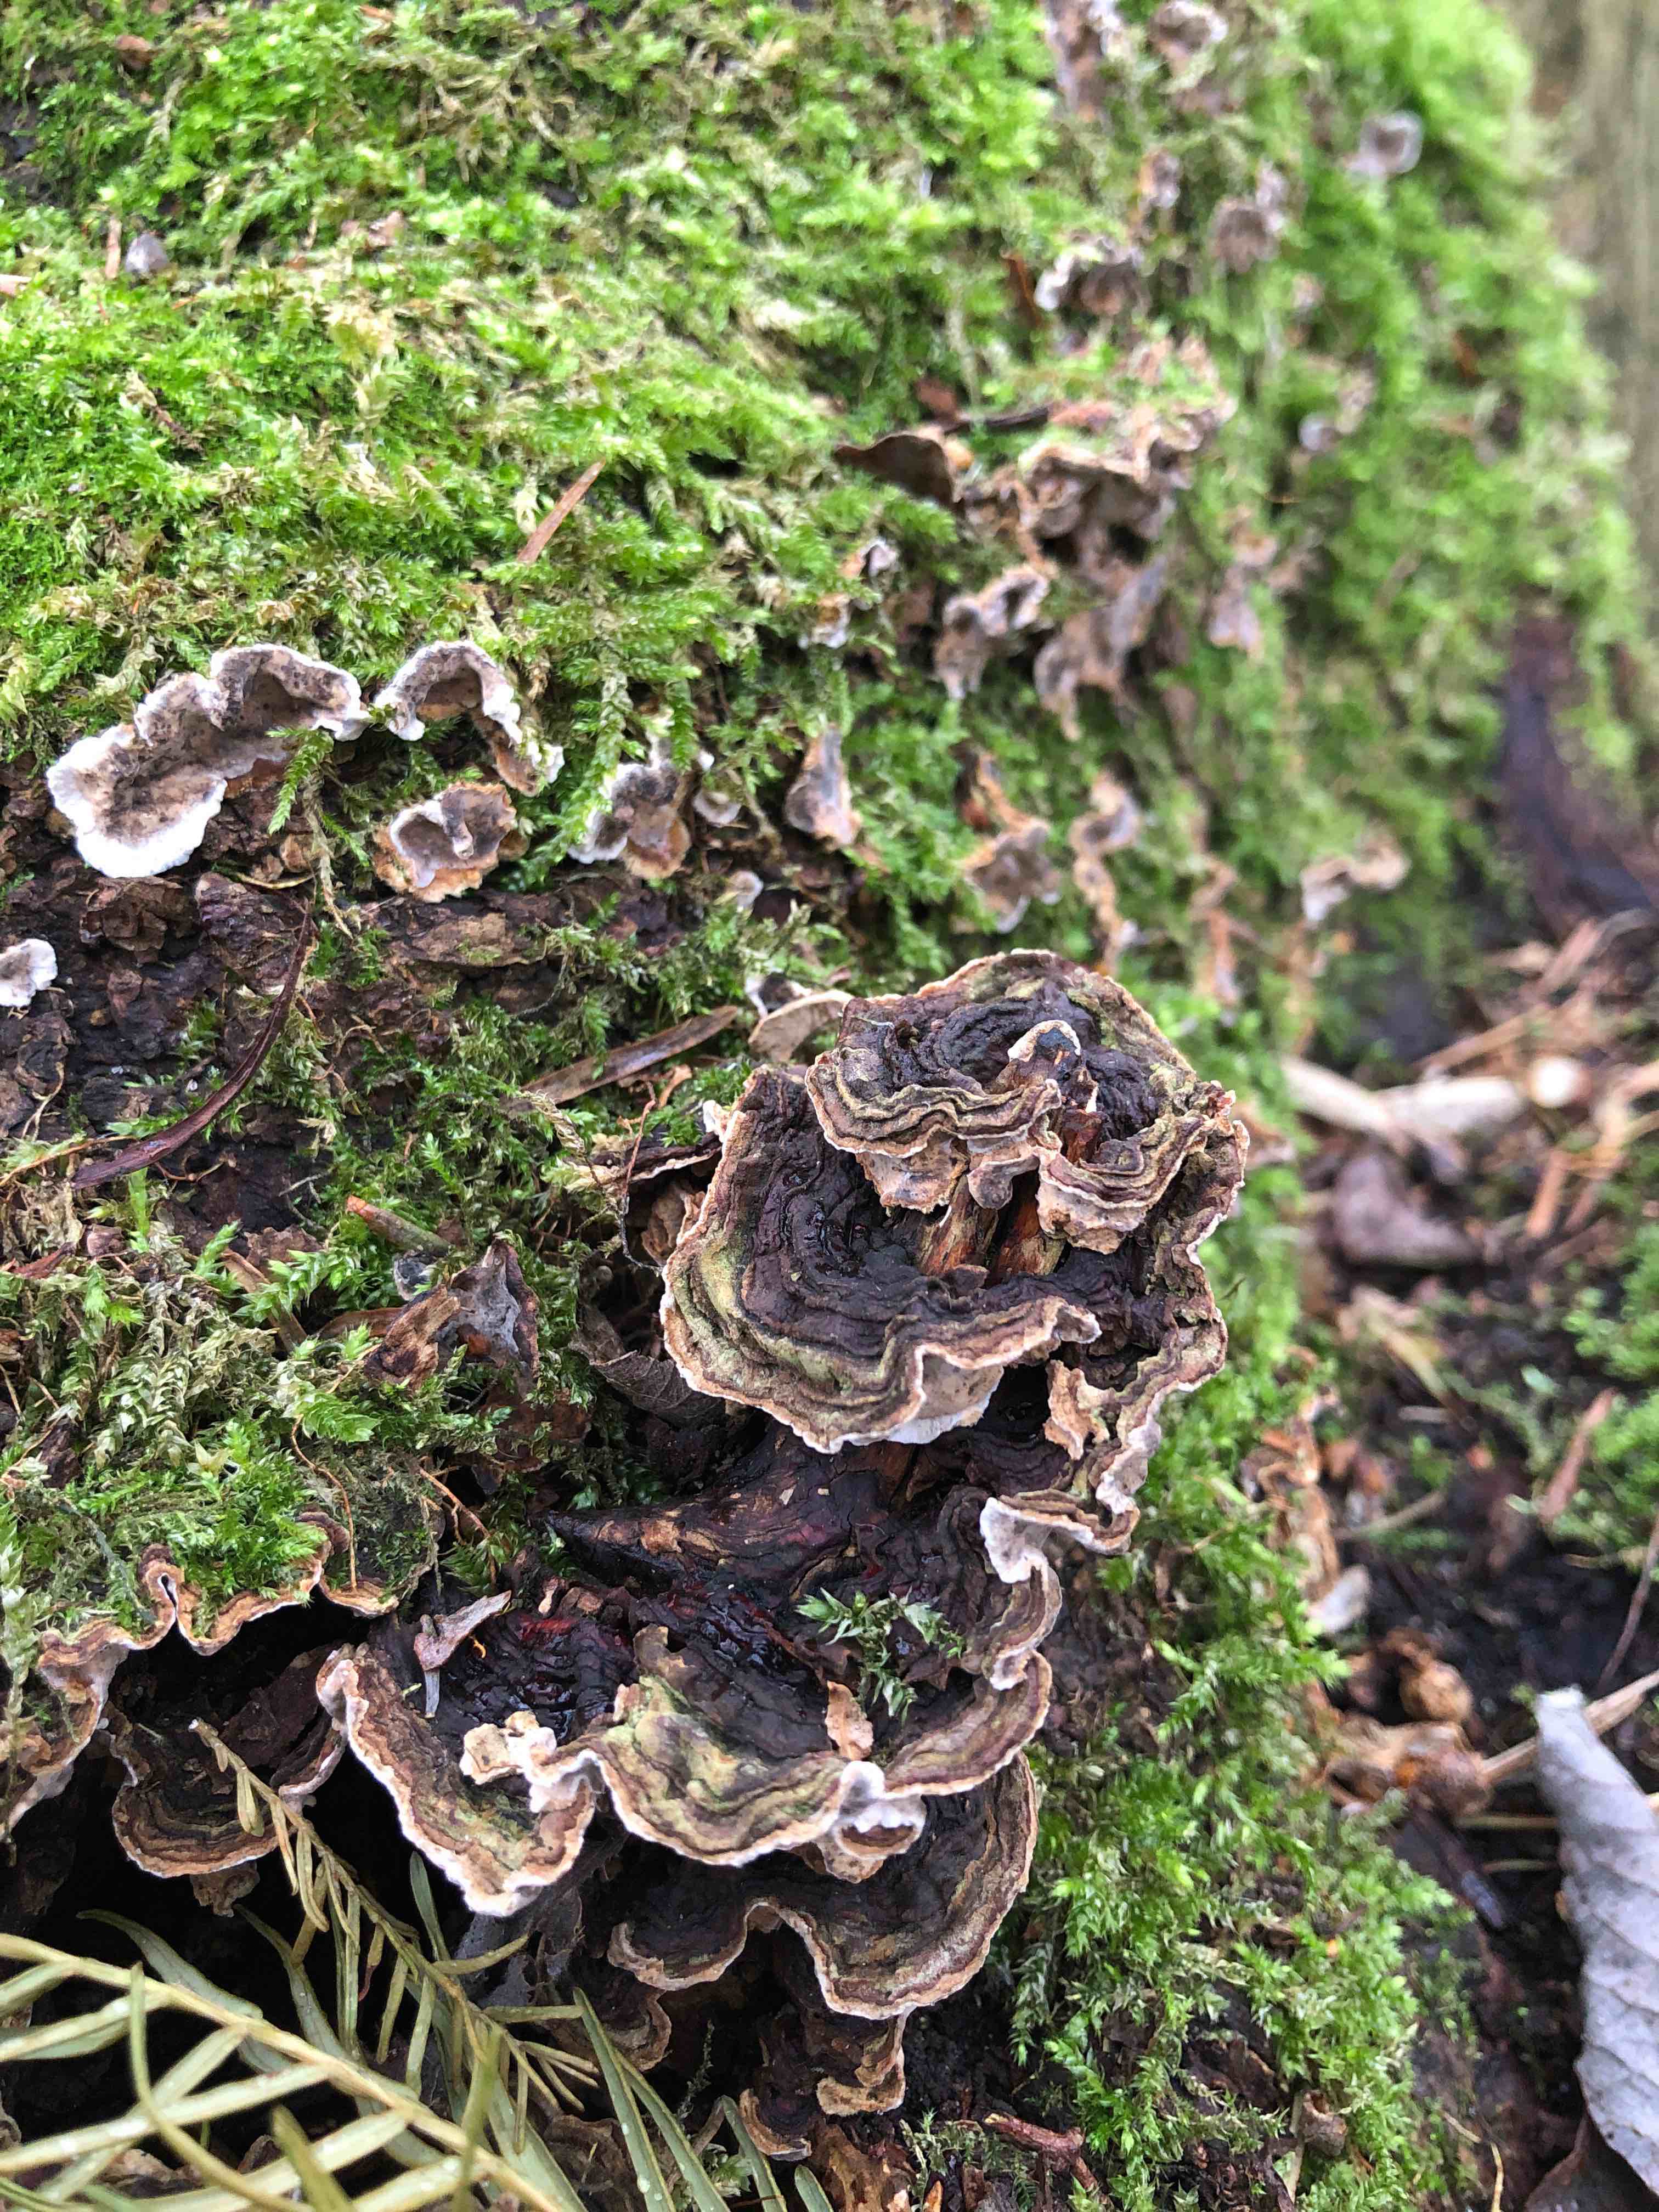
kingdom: Fungi
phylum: Basidiomycota
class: Agaricomycetes
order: Russulales
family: Stereaceae
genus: Stereum
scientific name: Stereum rugosum
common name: rynket lædersvamp
